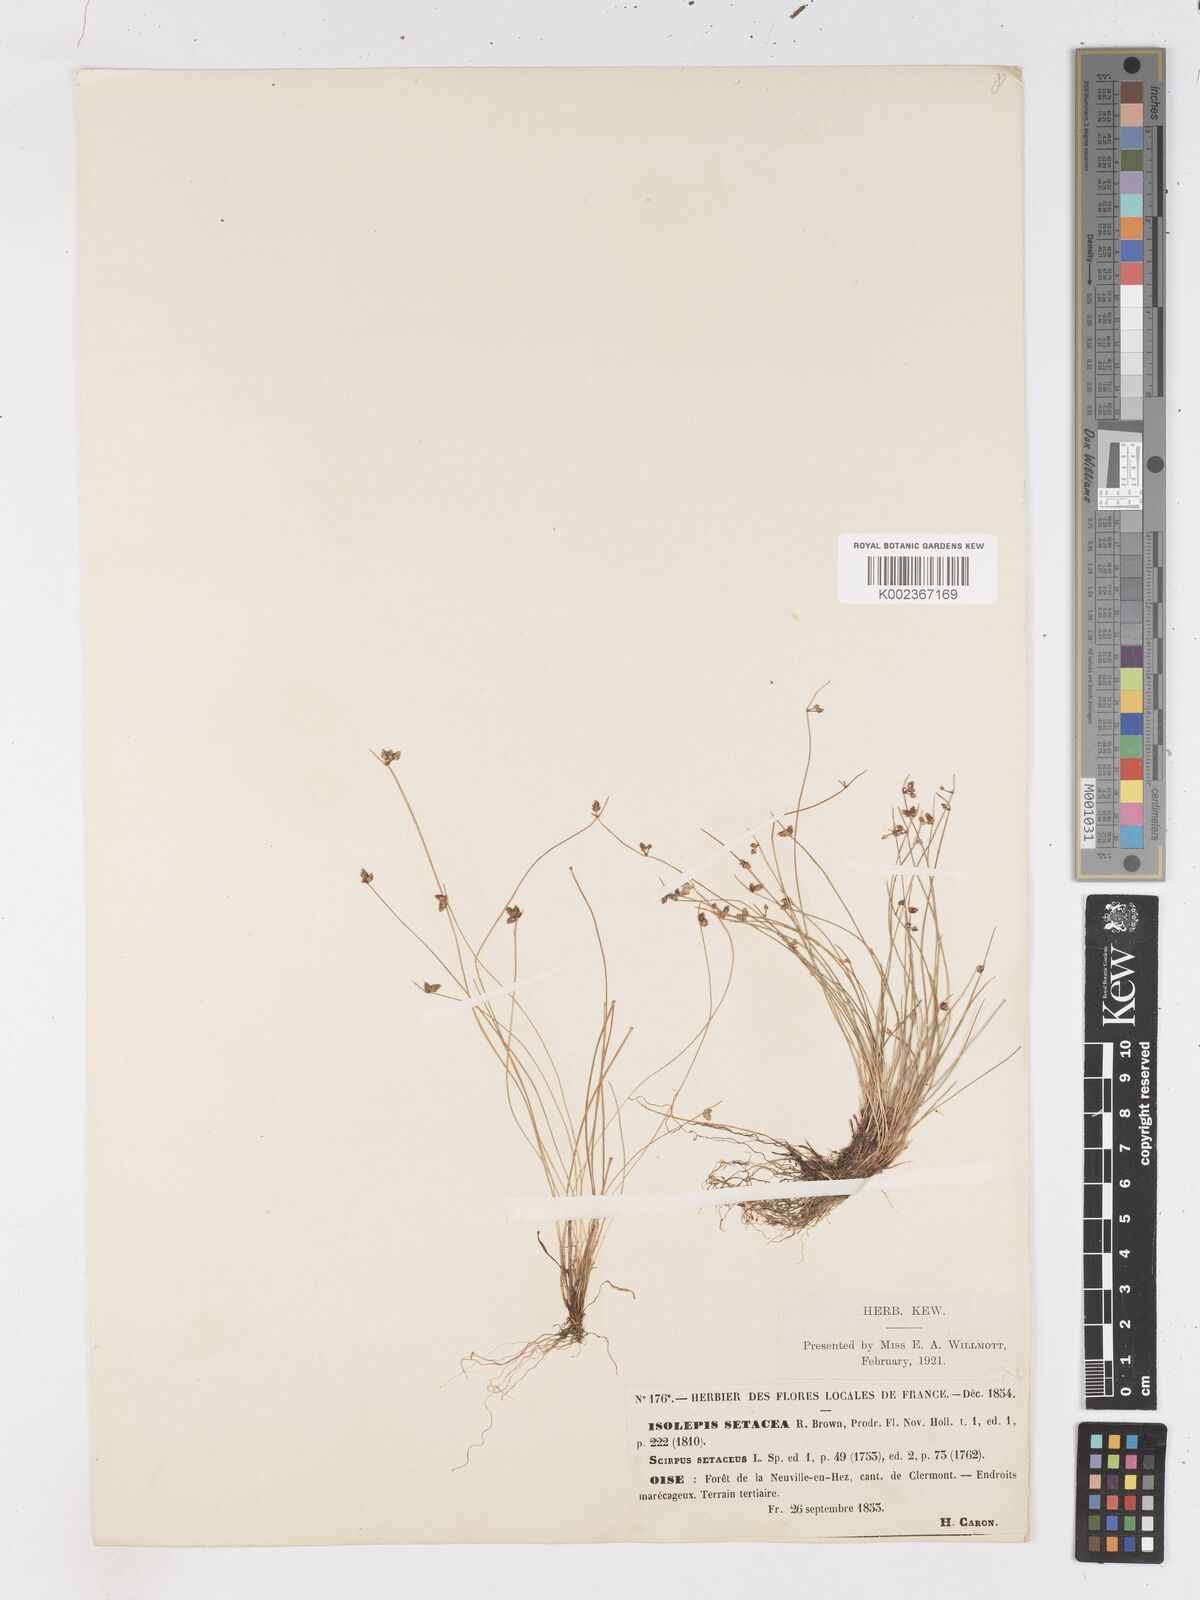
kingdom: Plantae
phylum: Tracheophyta
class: Liliopsida
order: Poales
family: Cyperaceae
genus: Isolepis
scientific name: Isolepis setacea
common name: Bristle club-rush
